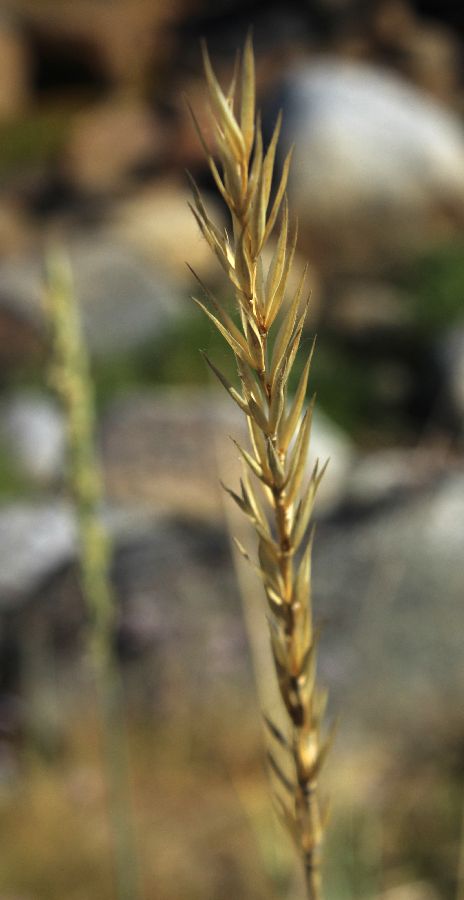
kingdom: Plantae
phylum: Tracheophyta
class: Liliopsida
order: Poales
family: Poaceae
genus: Leymus
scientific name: Leymus arenarius
